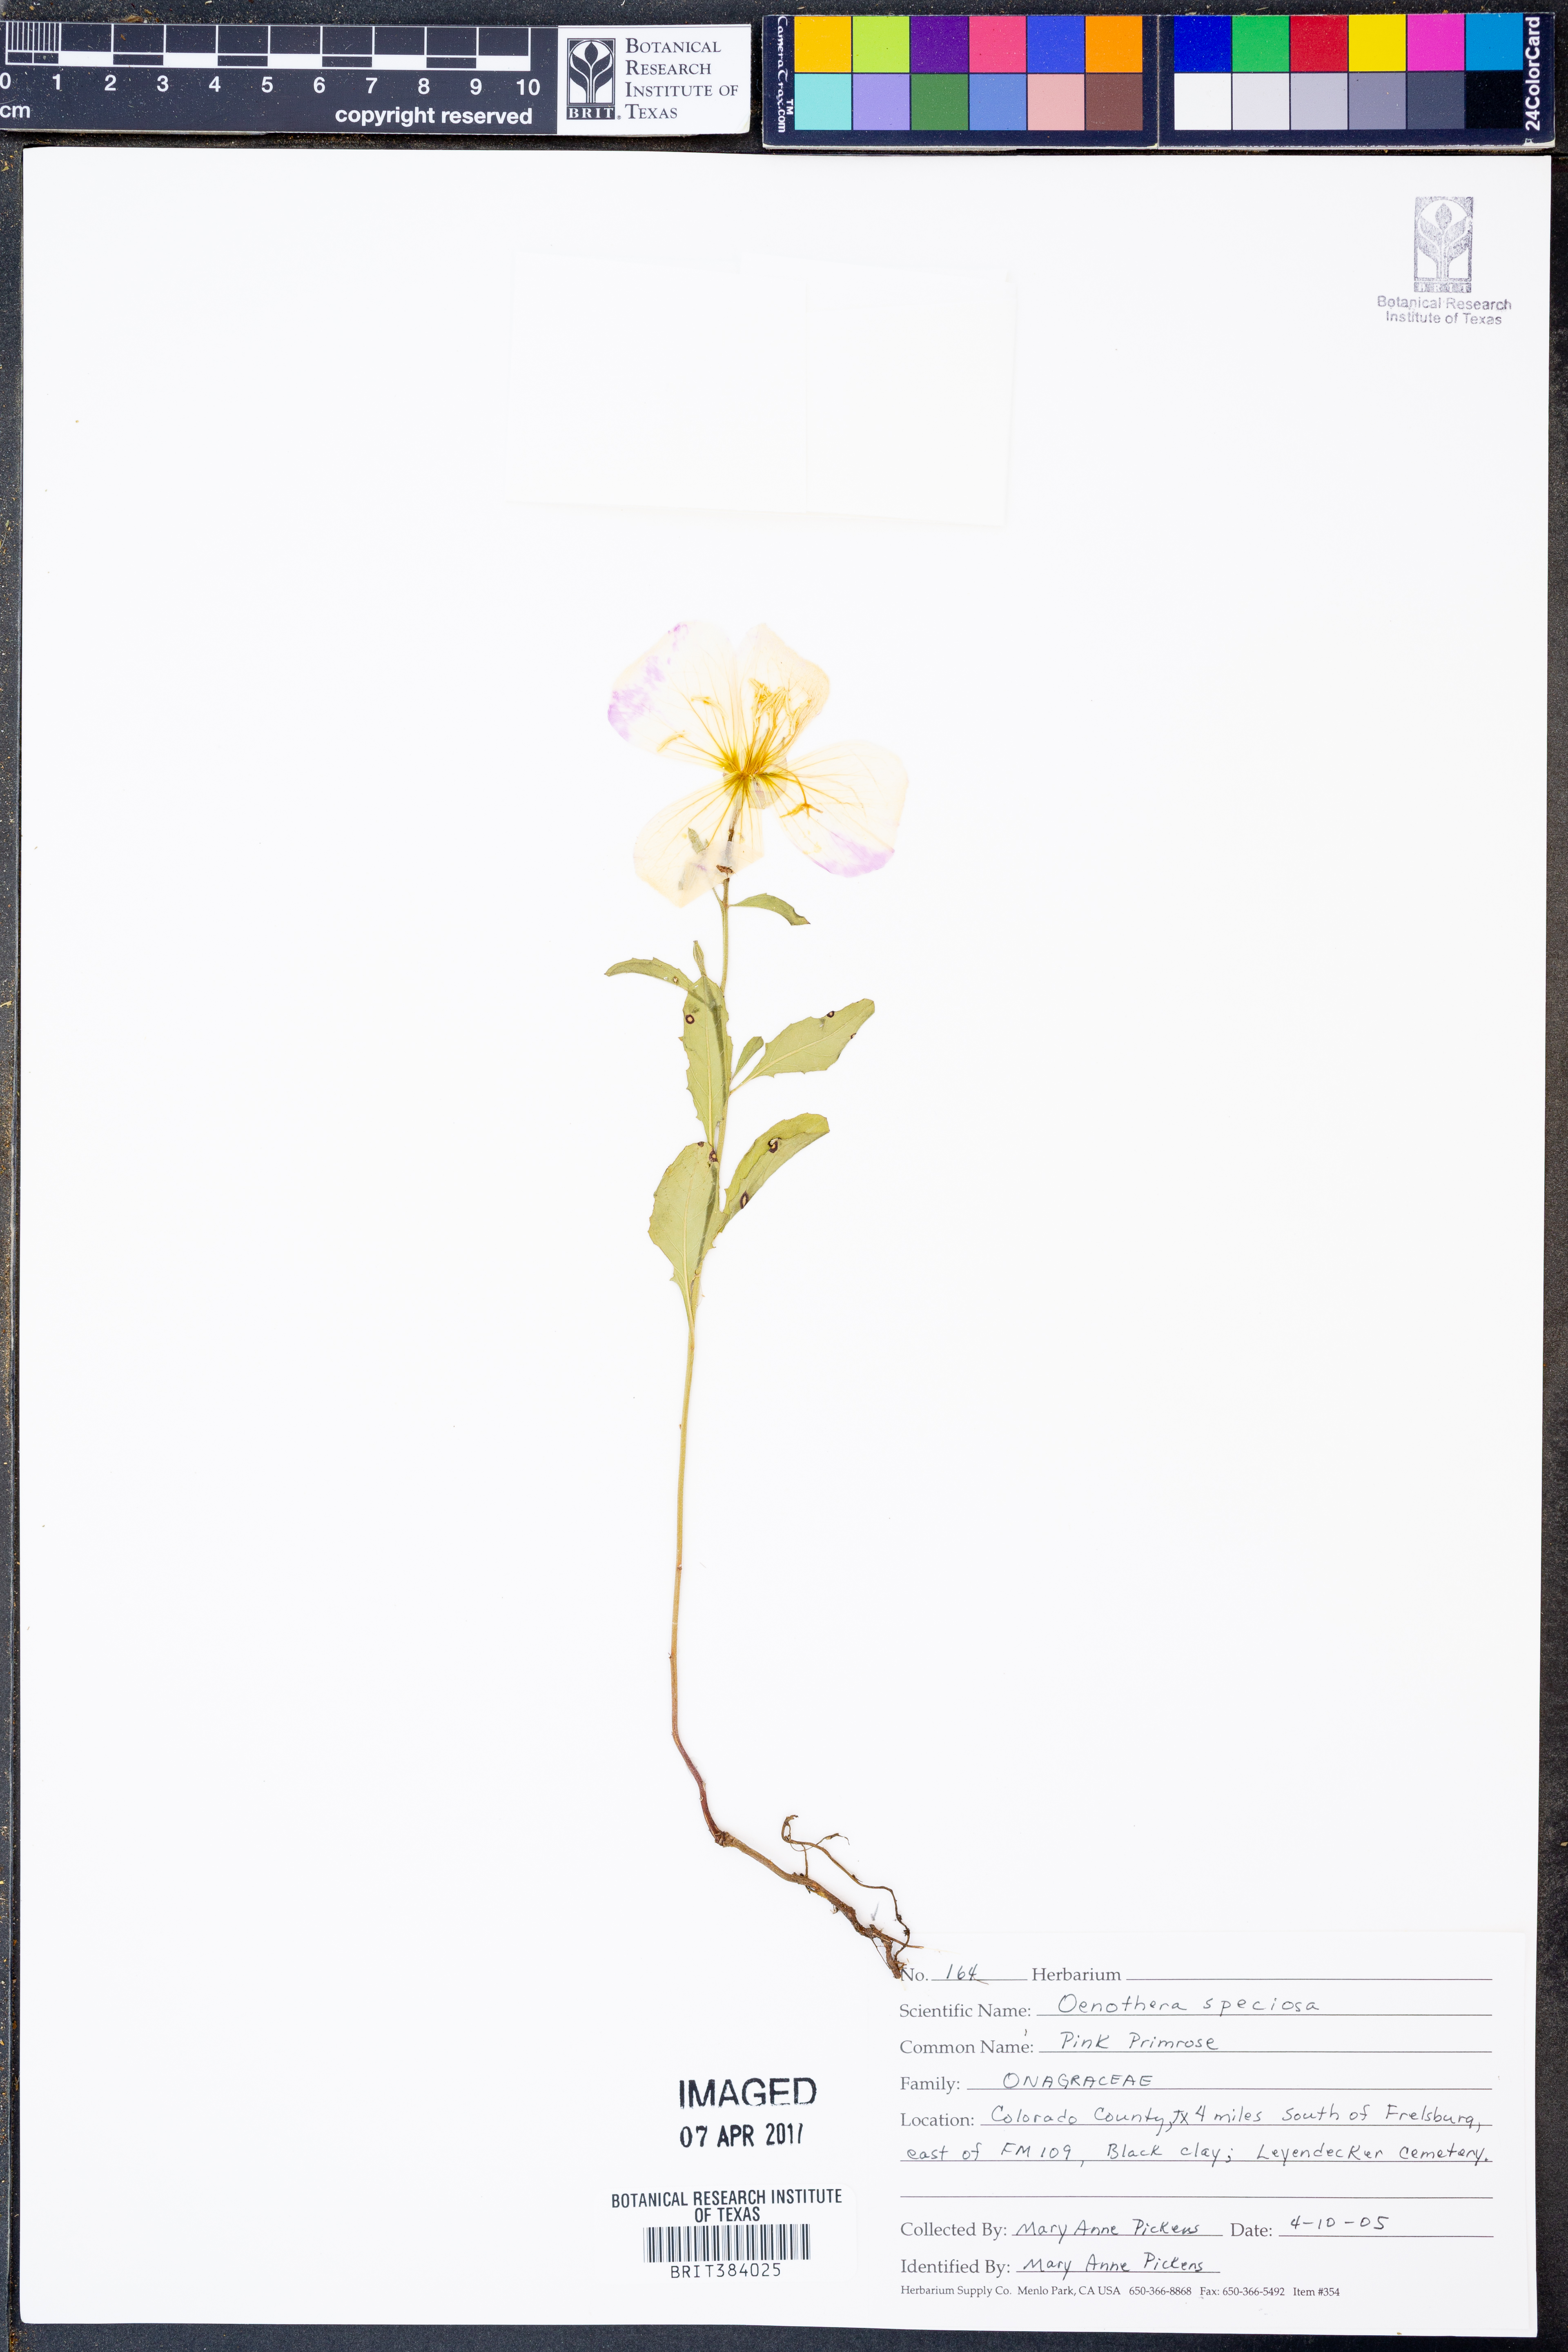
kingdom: Plantae
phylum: Tracheophyta
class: Magnoliopsida
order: Myrtales
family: Onagraceae
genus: Oenothera
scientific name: Oenothera speciosa
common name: White evening-primrose
